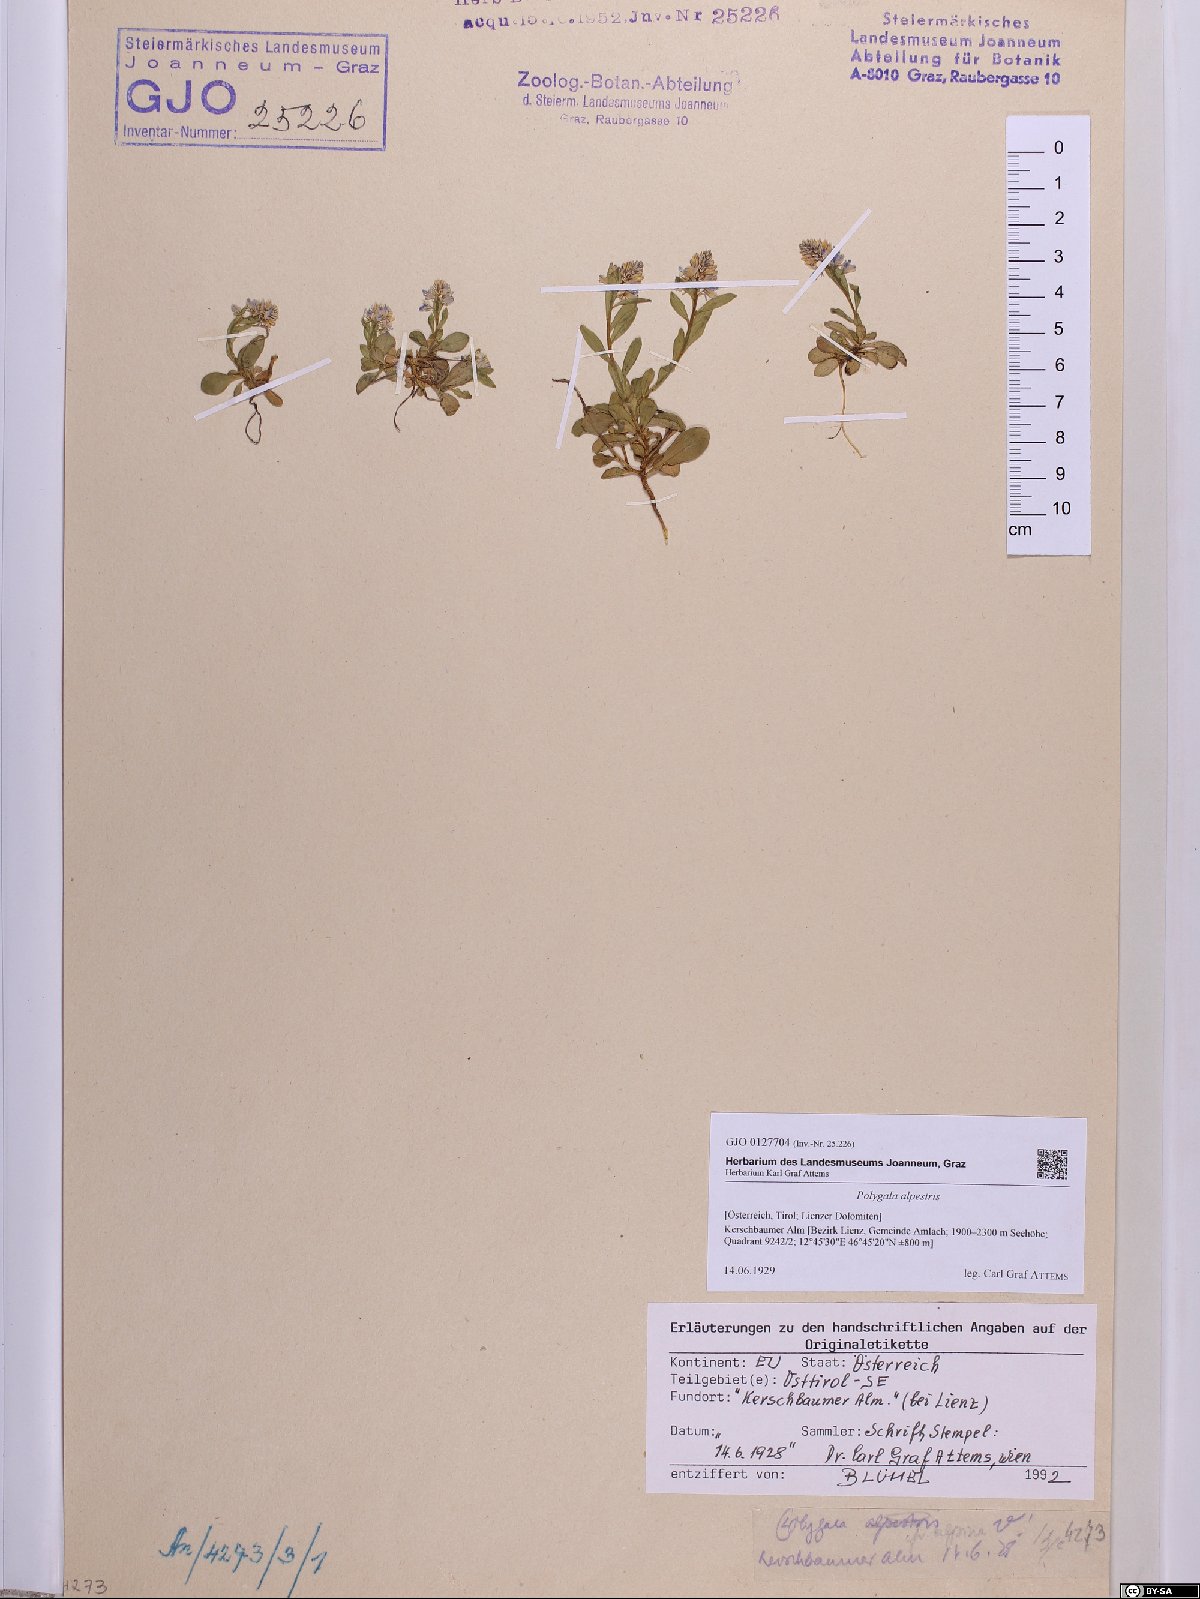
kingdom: Plantae
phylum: Tracheophyta
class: Magnoliopsida
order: Fabales
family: Polygalaceae
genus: Polygala
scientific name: Polygala alpestris
